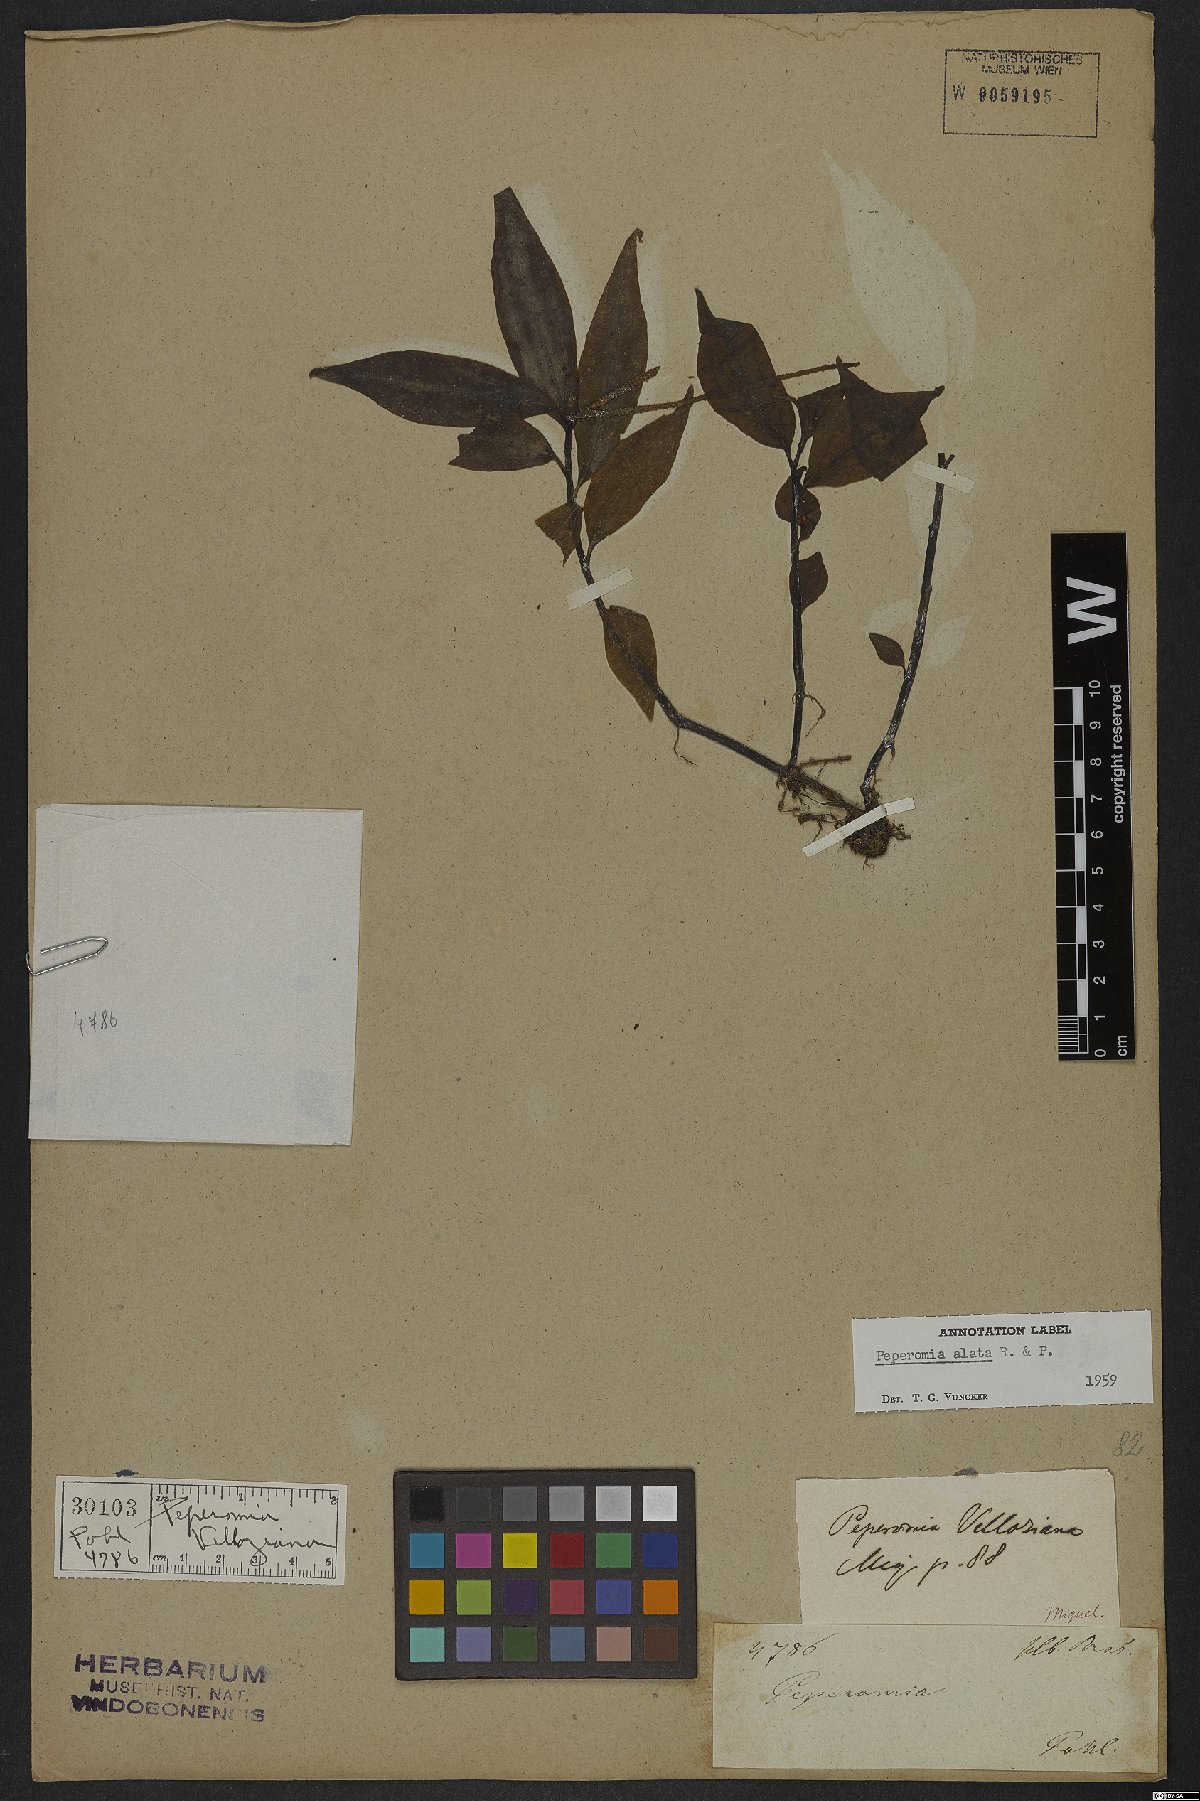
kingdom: Plantae
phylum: Tracheophyta
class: Magnoliopsida
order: Piperales
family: Piperaceae
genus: Peperomia
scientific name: Peperomia alata
